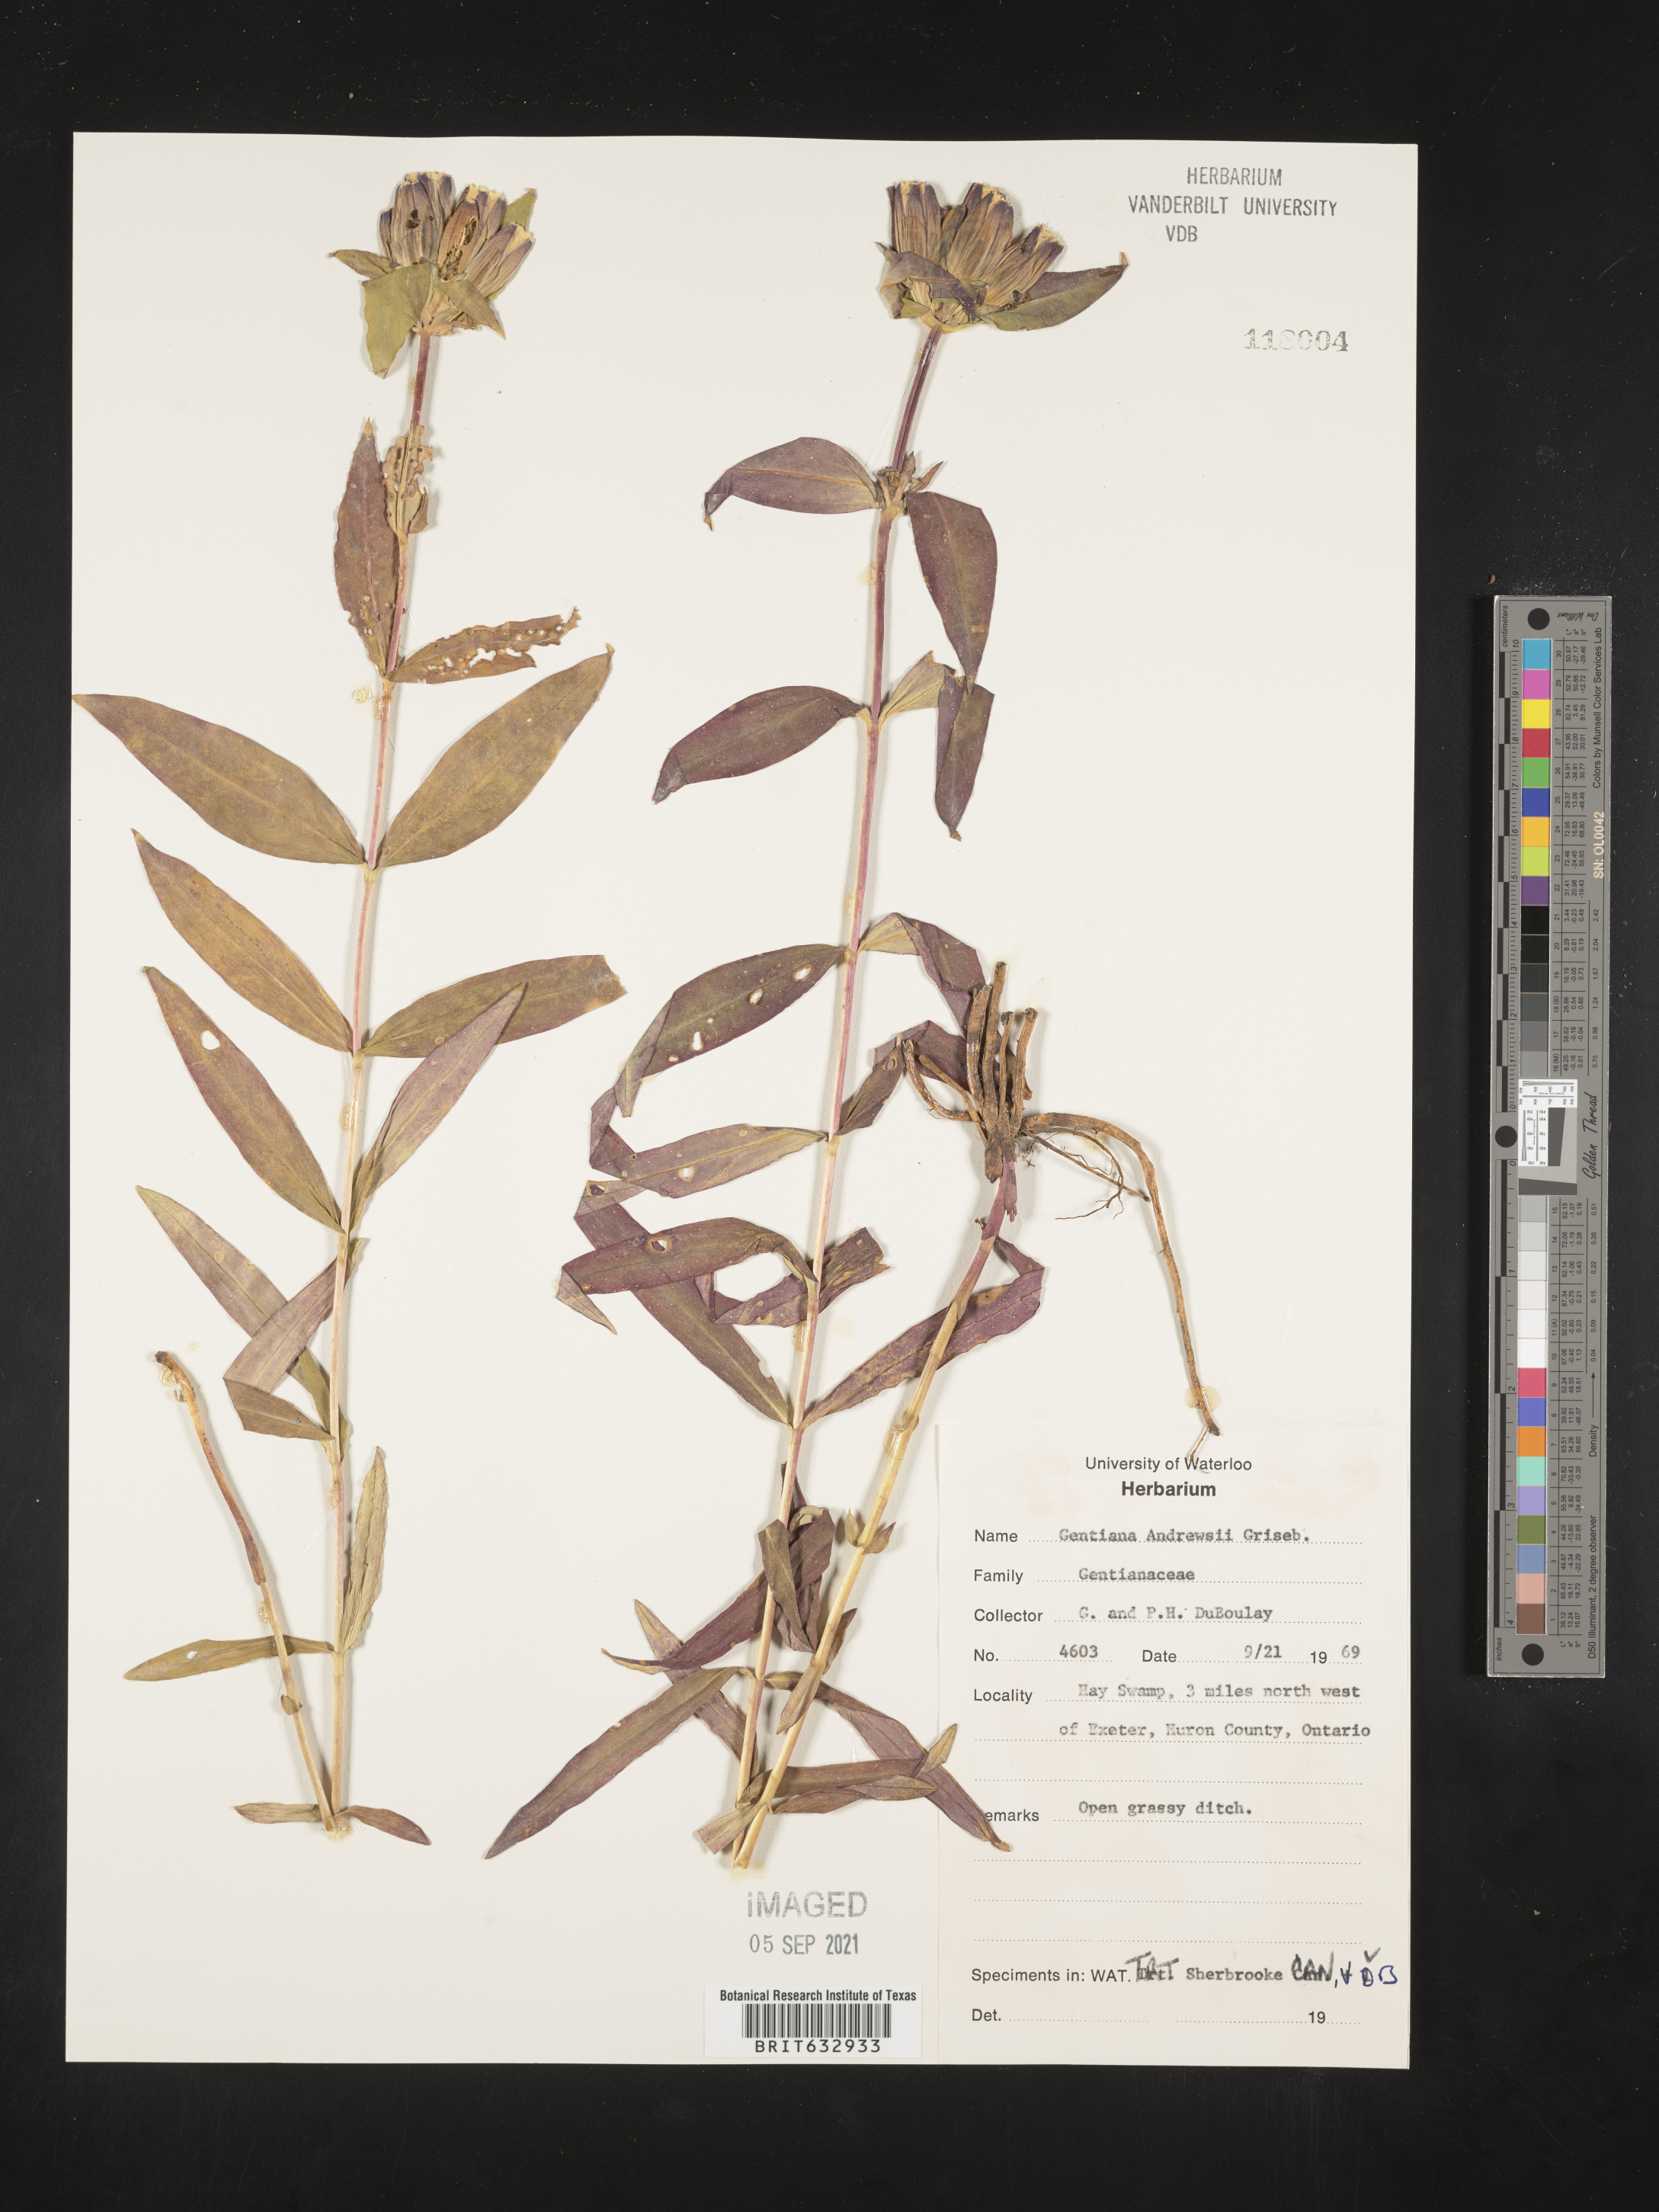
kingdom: Plantae
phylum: Tracheophyta
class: Magnoliopsida
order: Gentianales
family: Gentianaceae
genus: Gentiana
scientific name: Gentiana
